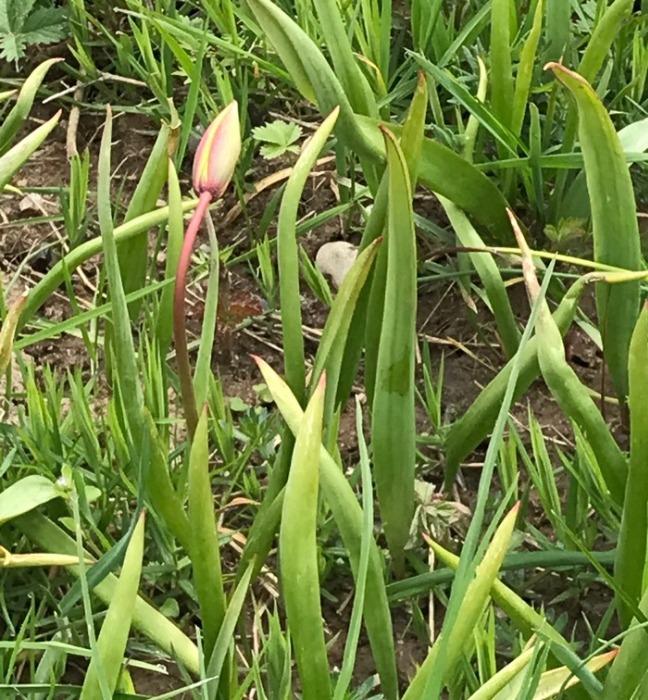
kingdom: Plantae
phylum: Tracheophyta
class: Liliopsida
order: Liliales
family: Liliaceae
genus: Tulipa
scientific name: Tulipa sylvestris
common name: Vild tulipan
